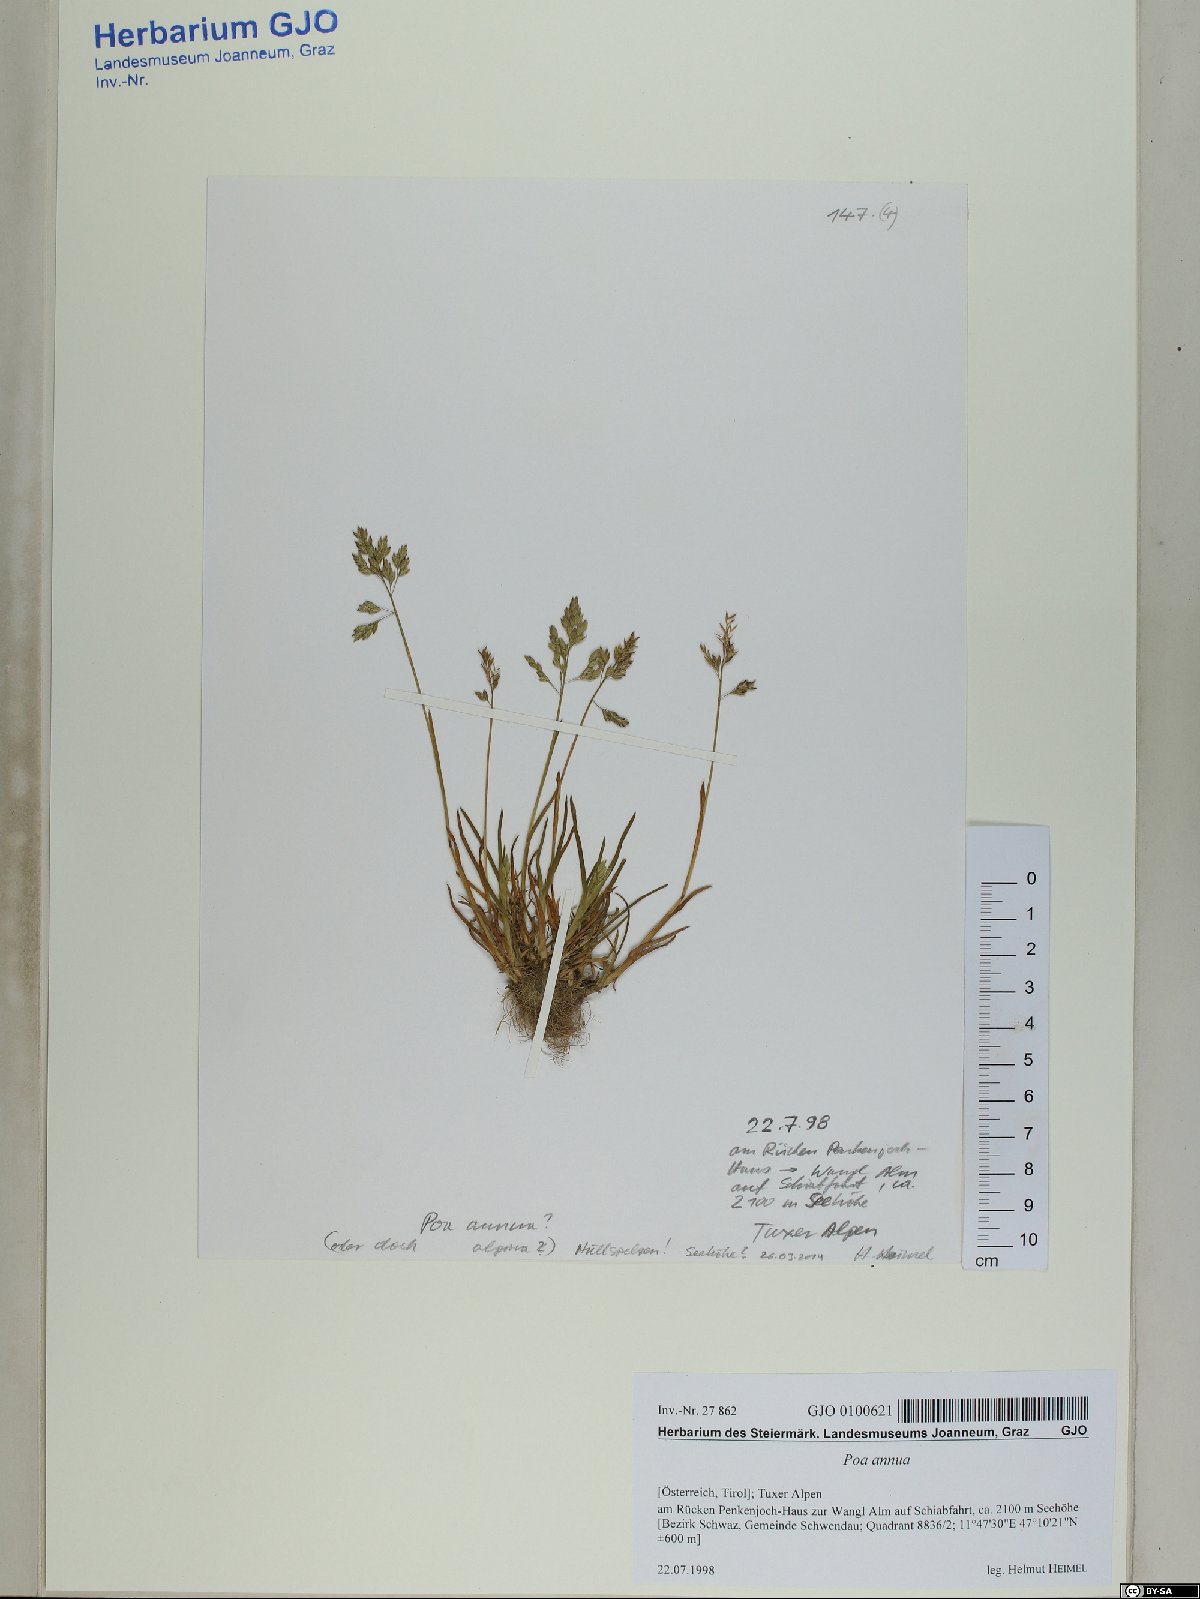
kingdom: Plantae
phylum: Tracheophyta
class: Liliopsida
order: Poales
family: Poaceae
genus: Poa
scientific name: Poa annua
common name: Annual bluegrass
